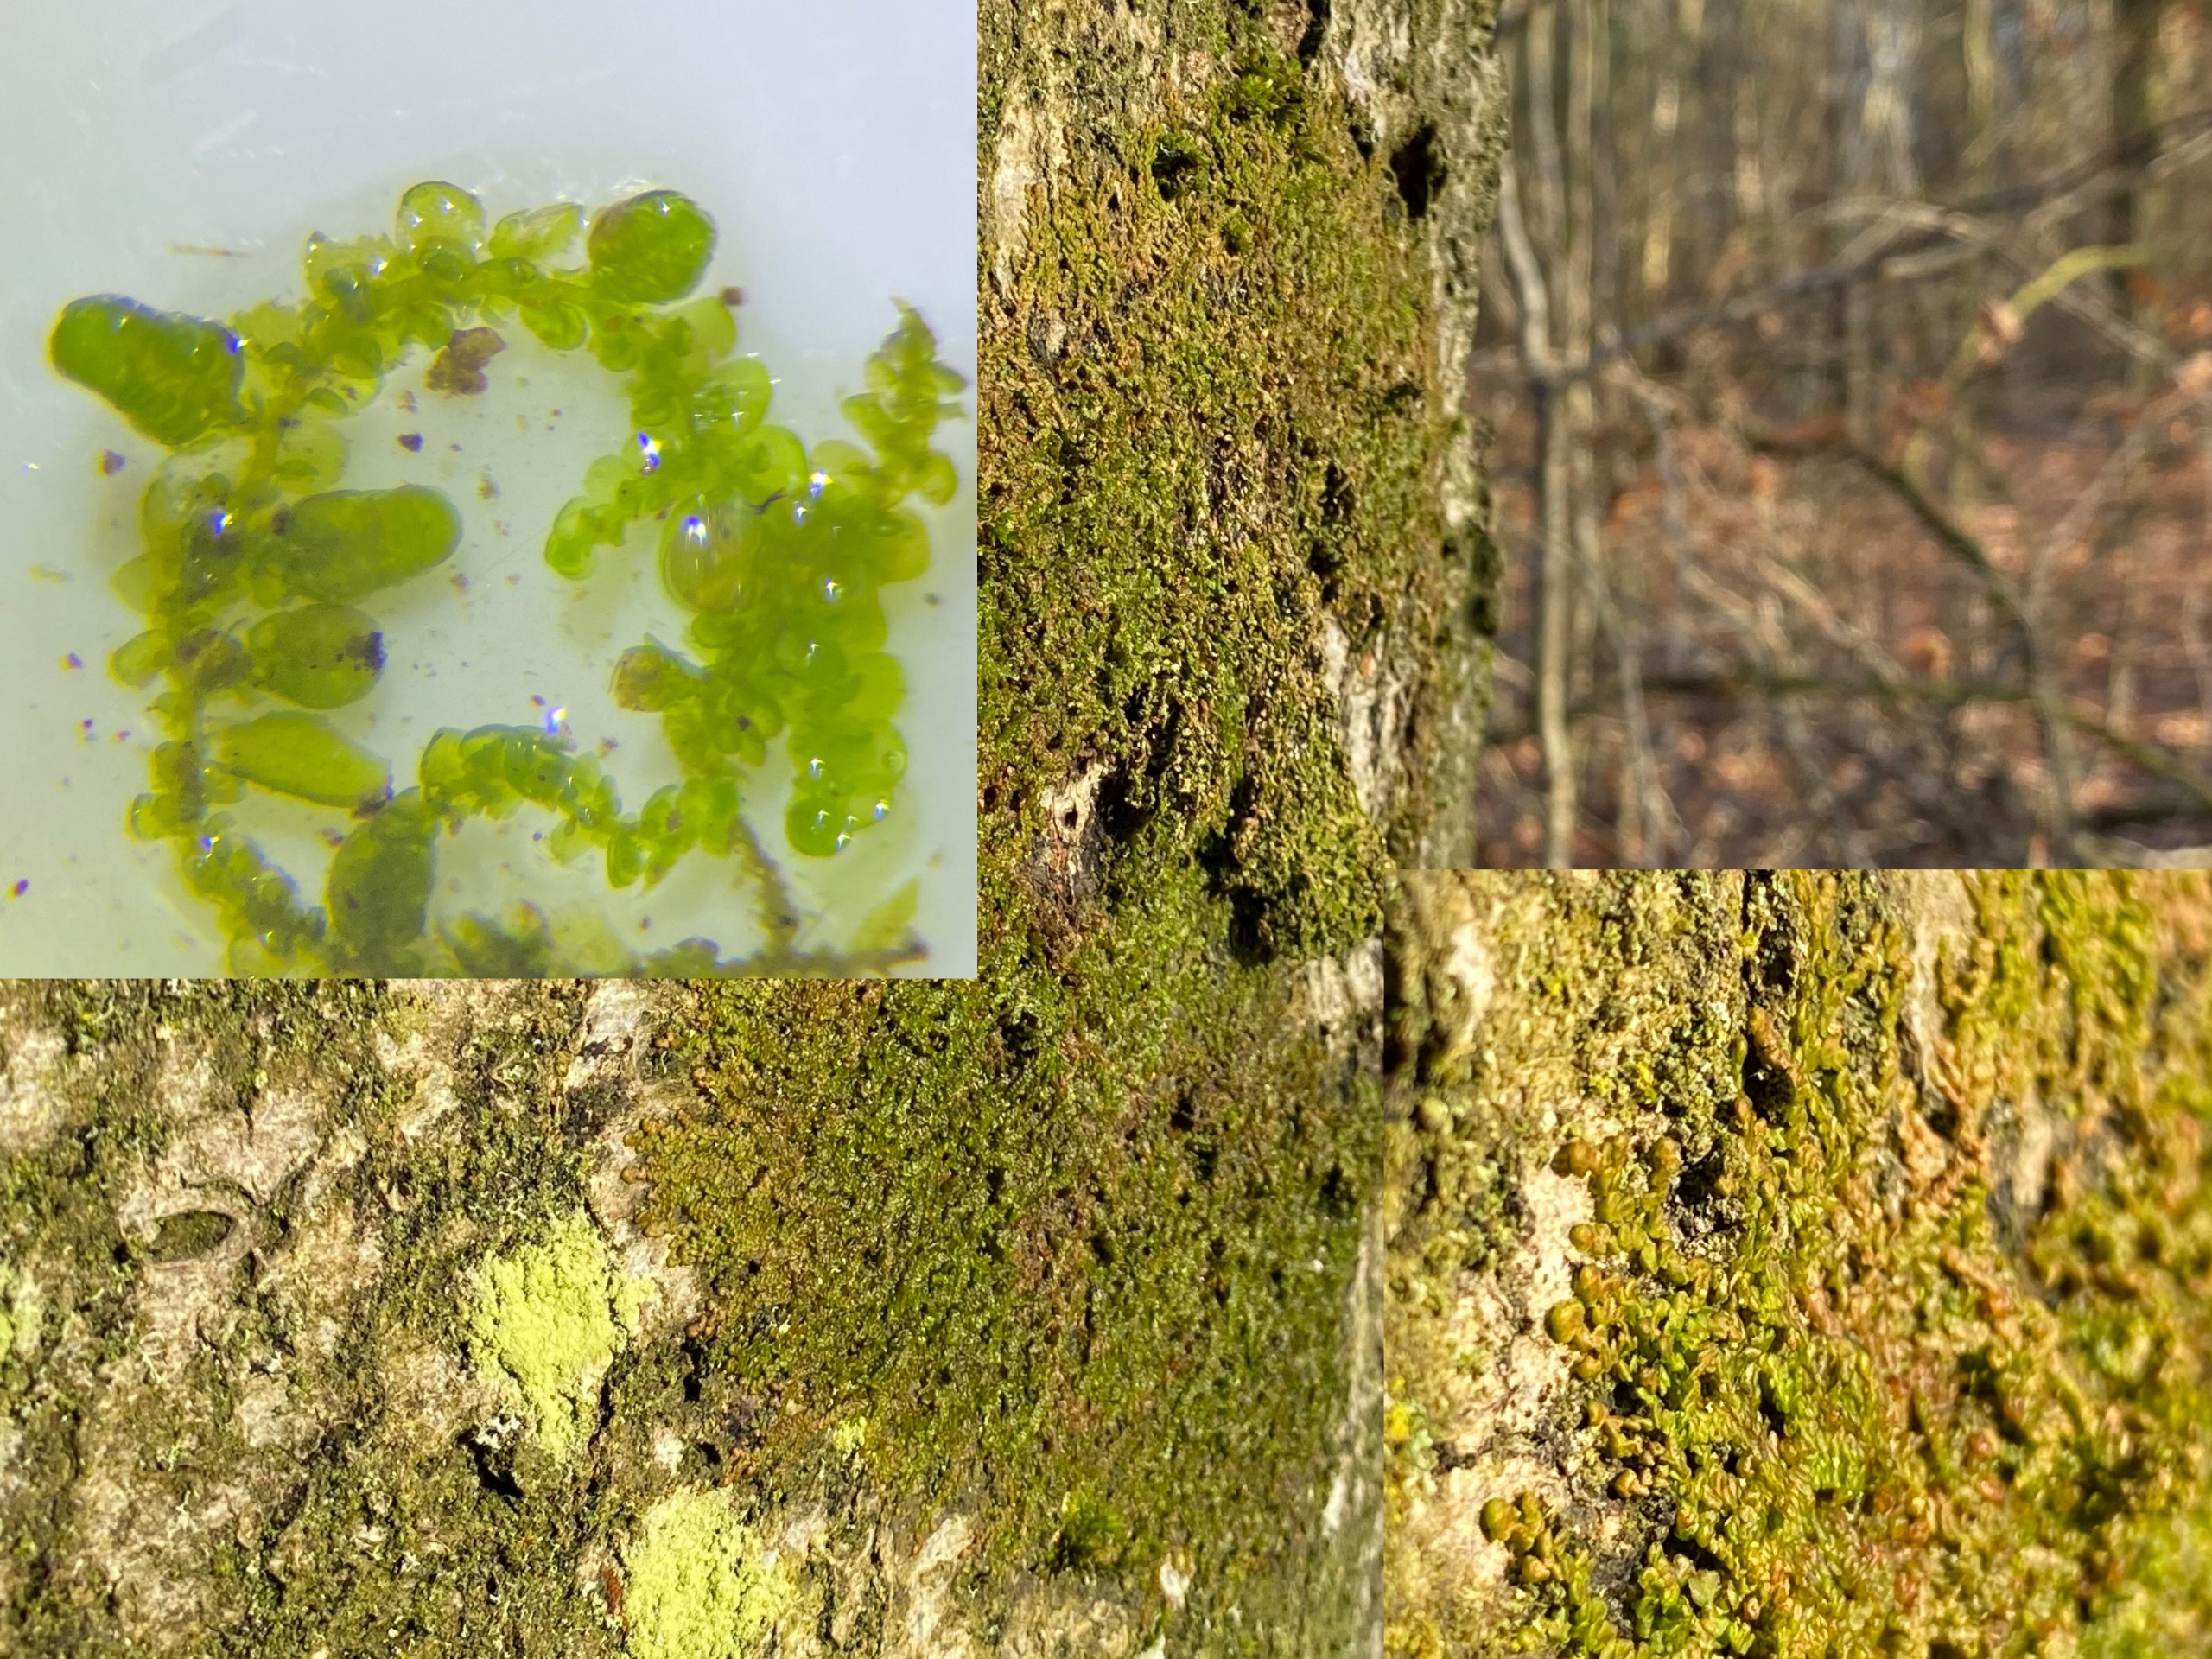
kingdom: Plantae
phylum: Marchantiophyta
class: Jungermanniopsida
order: Porellales
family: Frullaniaceae
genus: Frullania
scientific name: Frullania dilatata
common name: Mat bronzemos
